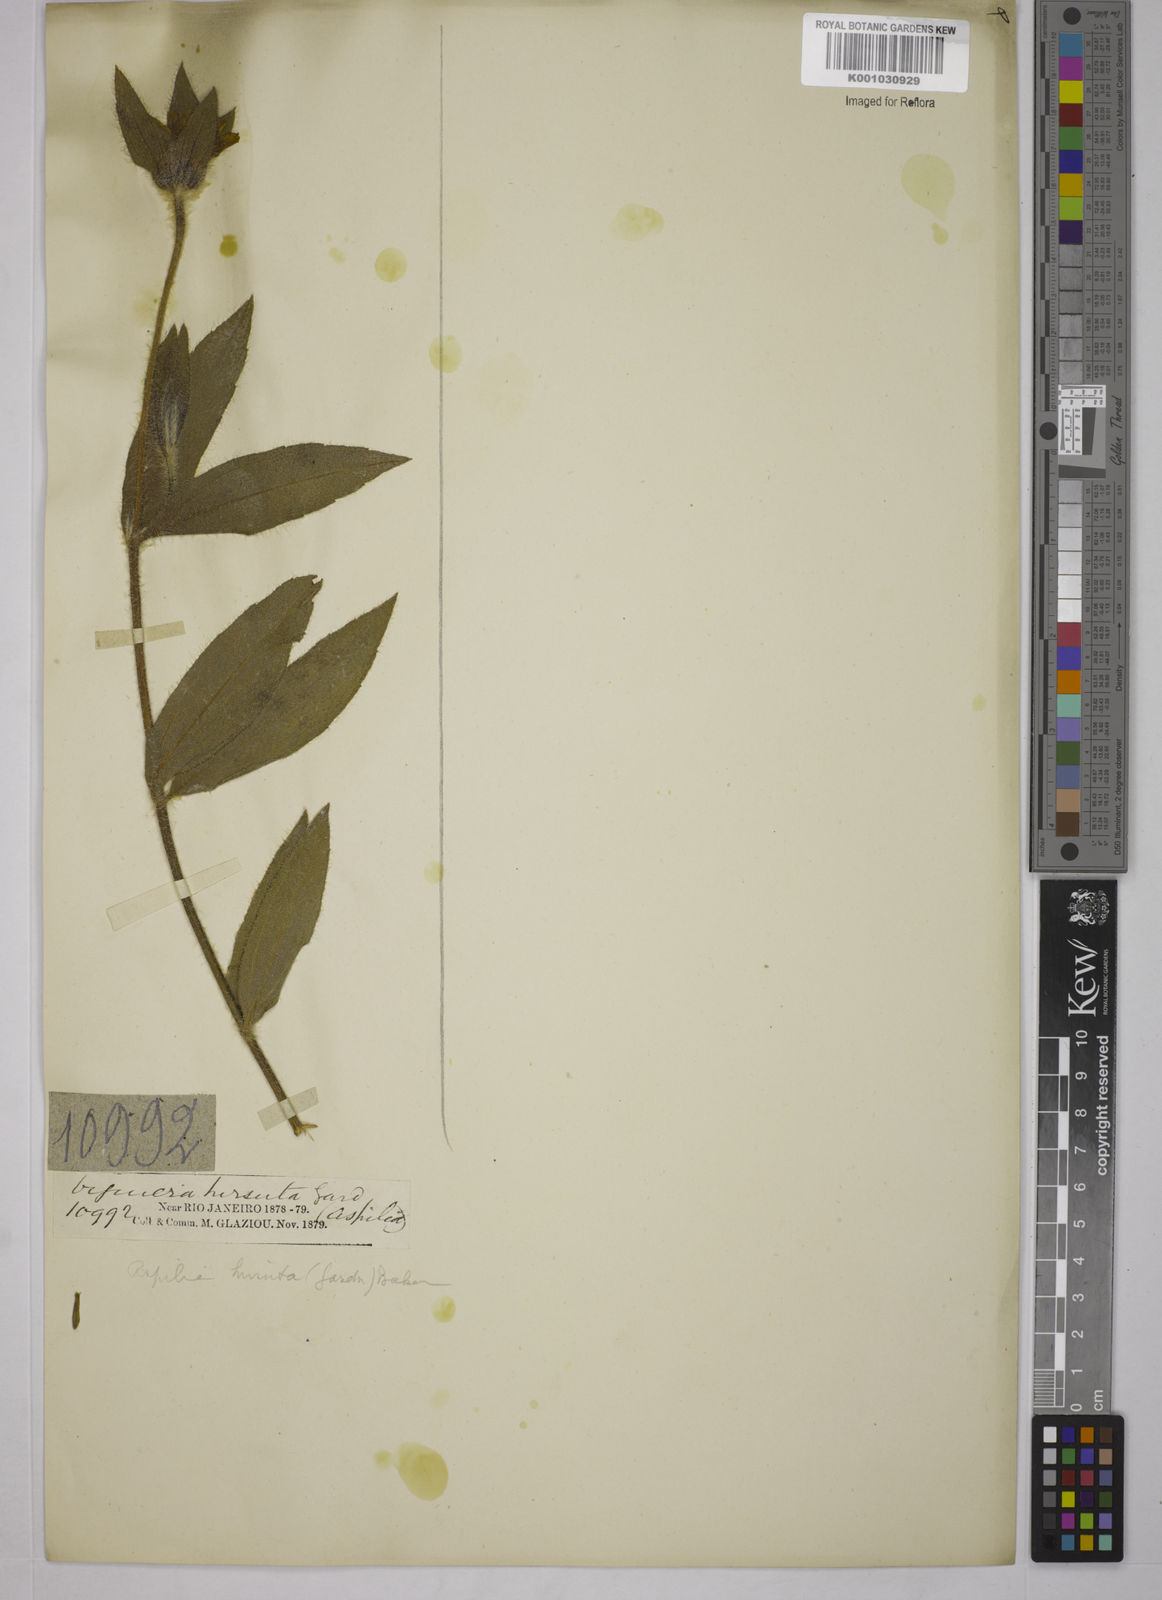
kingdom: Plantae
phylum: Tracheophyta
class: Magnoliopsida
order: Asterales
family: Asteraceae
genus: Wedelia
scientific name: Wedelia foliacea
